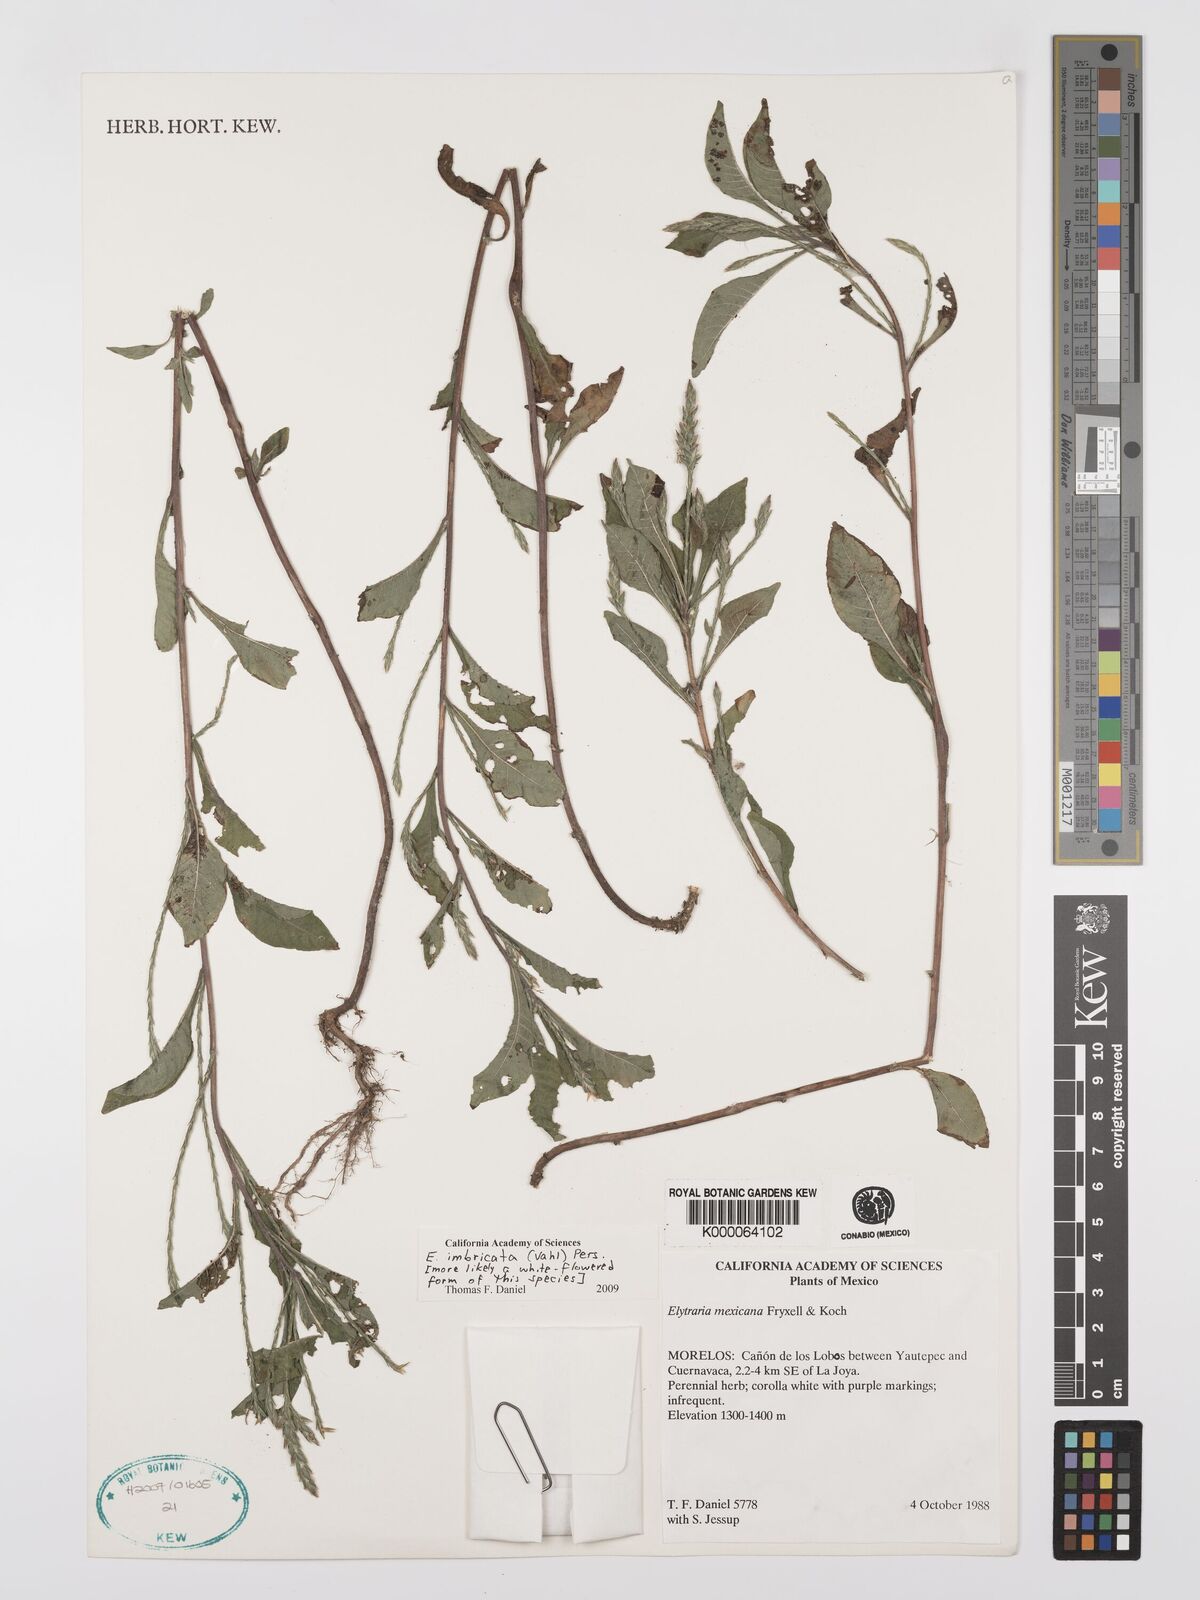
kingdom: Plantae
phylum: Tracheophyta
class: Magnoliopsida
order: Lamiales
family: Acanthaceae
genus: Elytraria
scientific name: Elytraria mexicana
